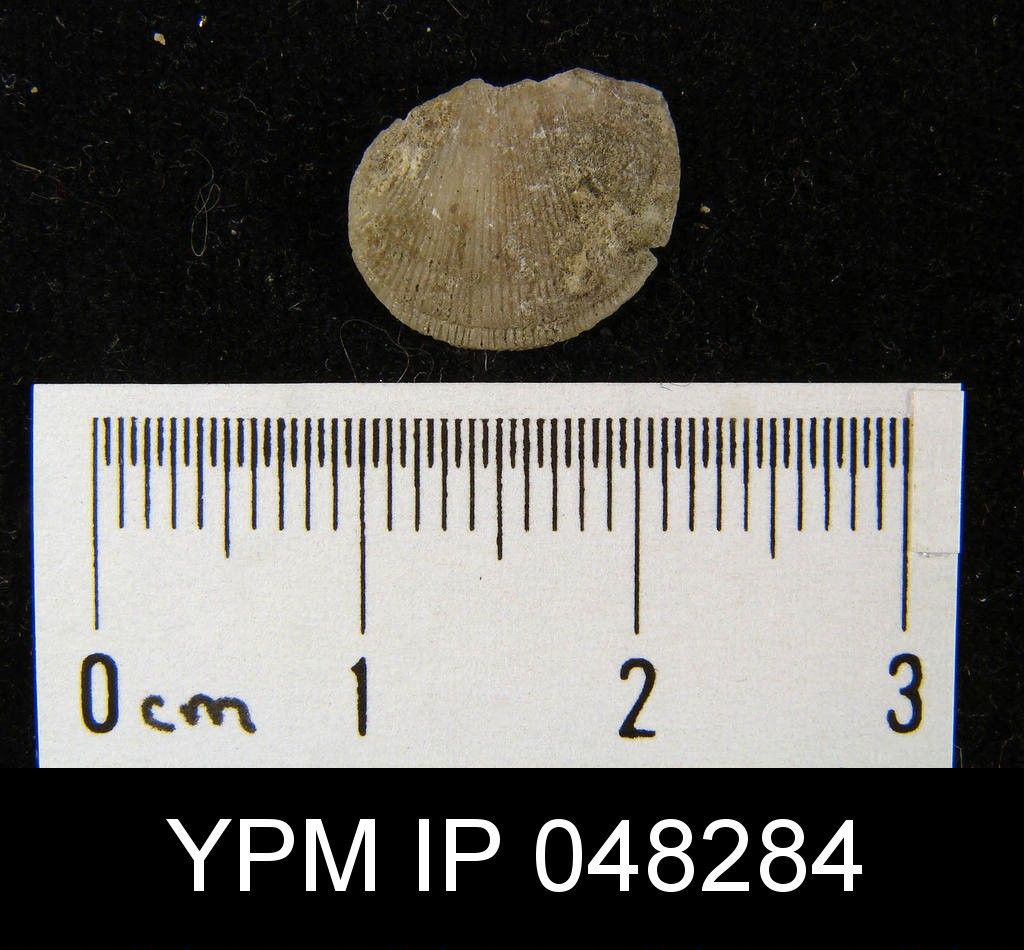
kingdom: Animalia
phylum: Brachiopoda
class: Rhynchonellata
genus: Arcualla
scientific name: Arcualla Orthis arcuaria
